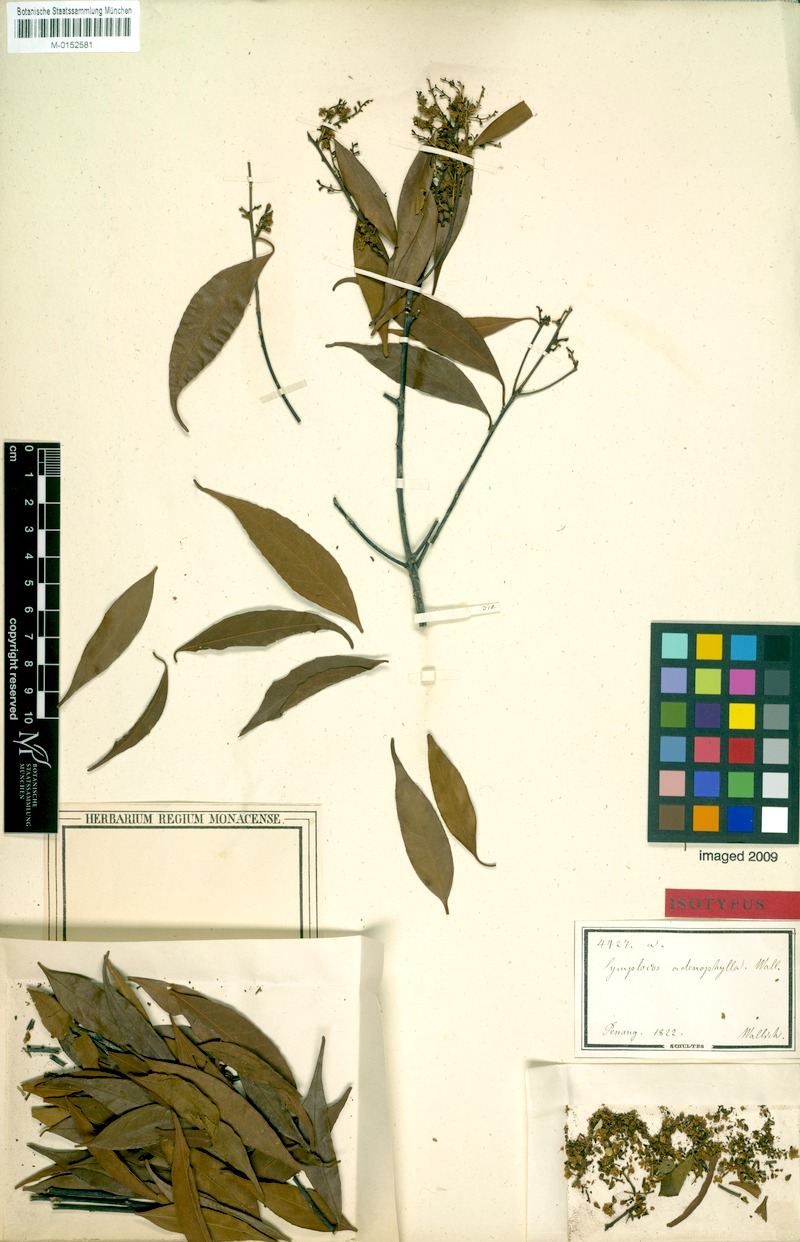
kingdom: Plantae
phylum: Tracheophyta
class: Magnoliopsida
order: Ericales
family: Symplocaceae
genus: Symplocos
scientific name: Symplocos adenophylla
